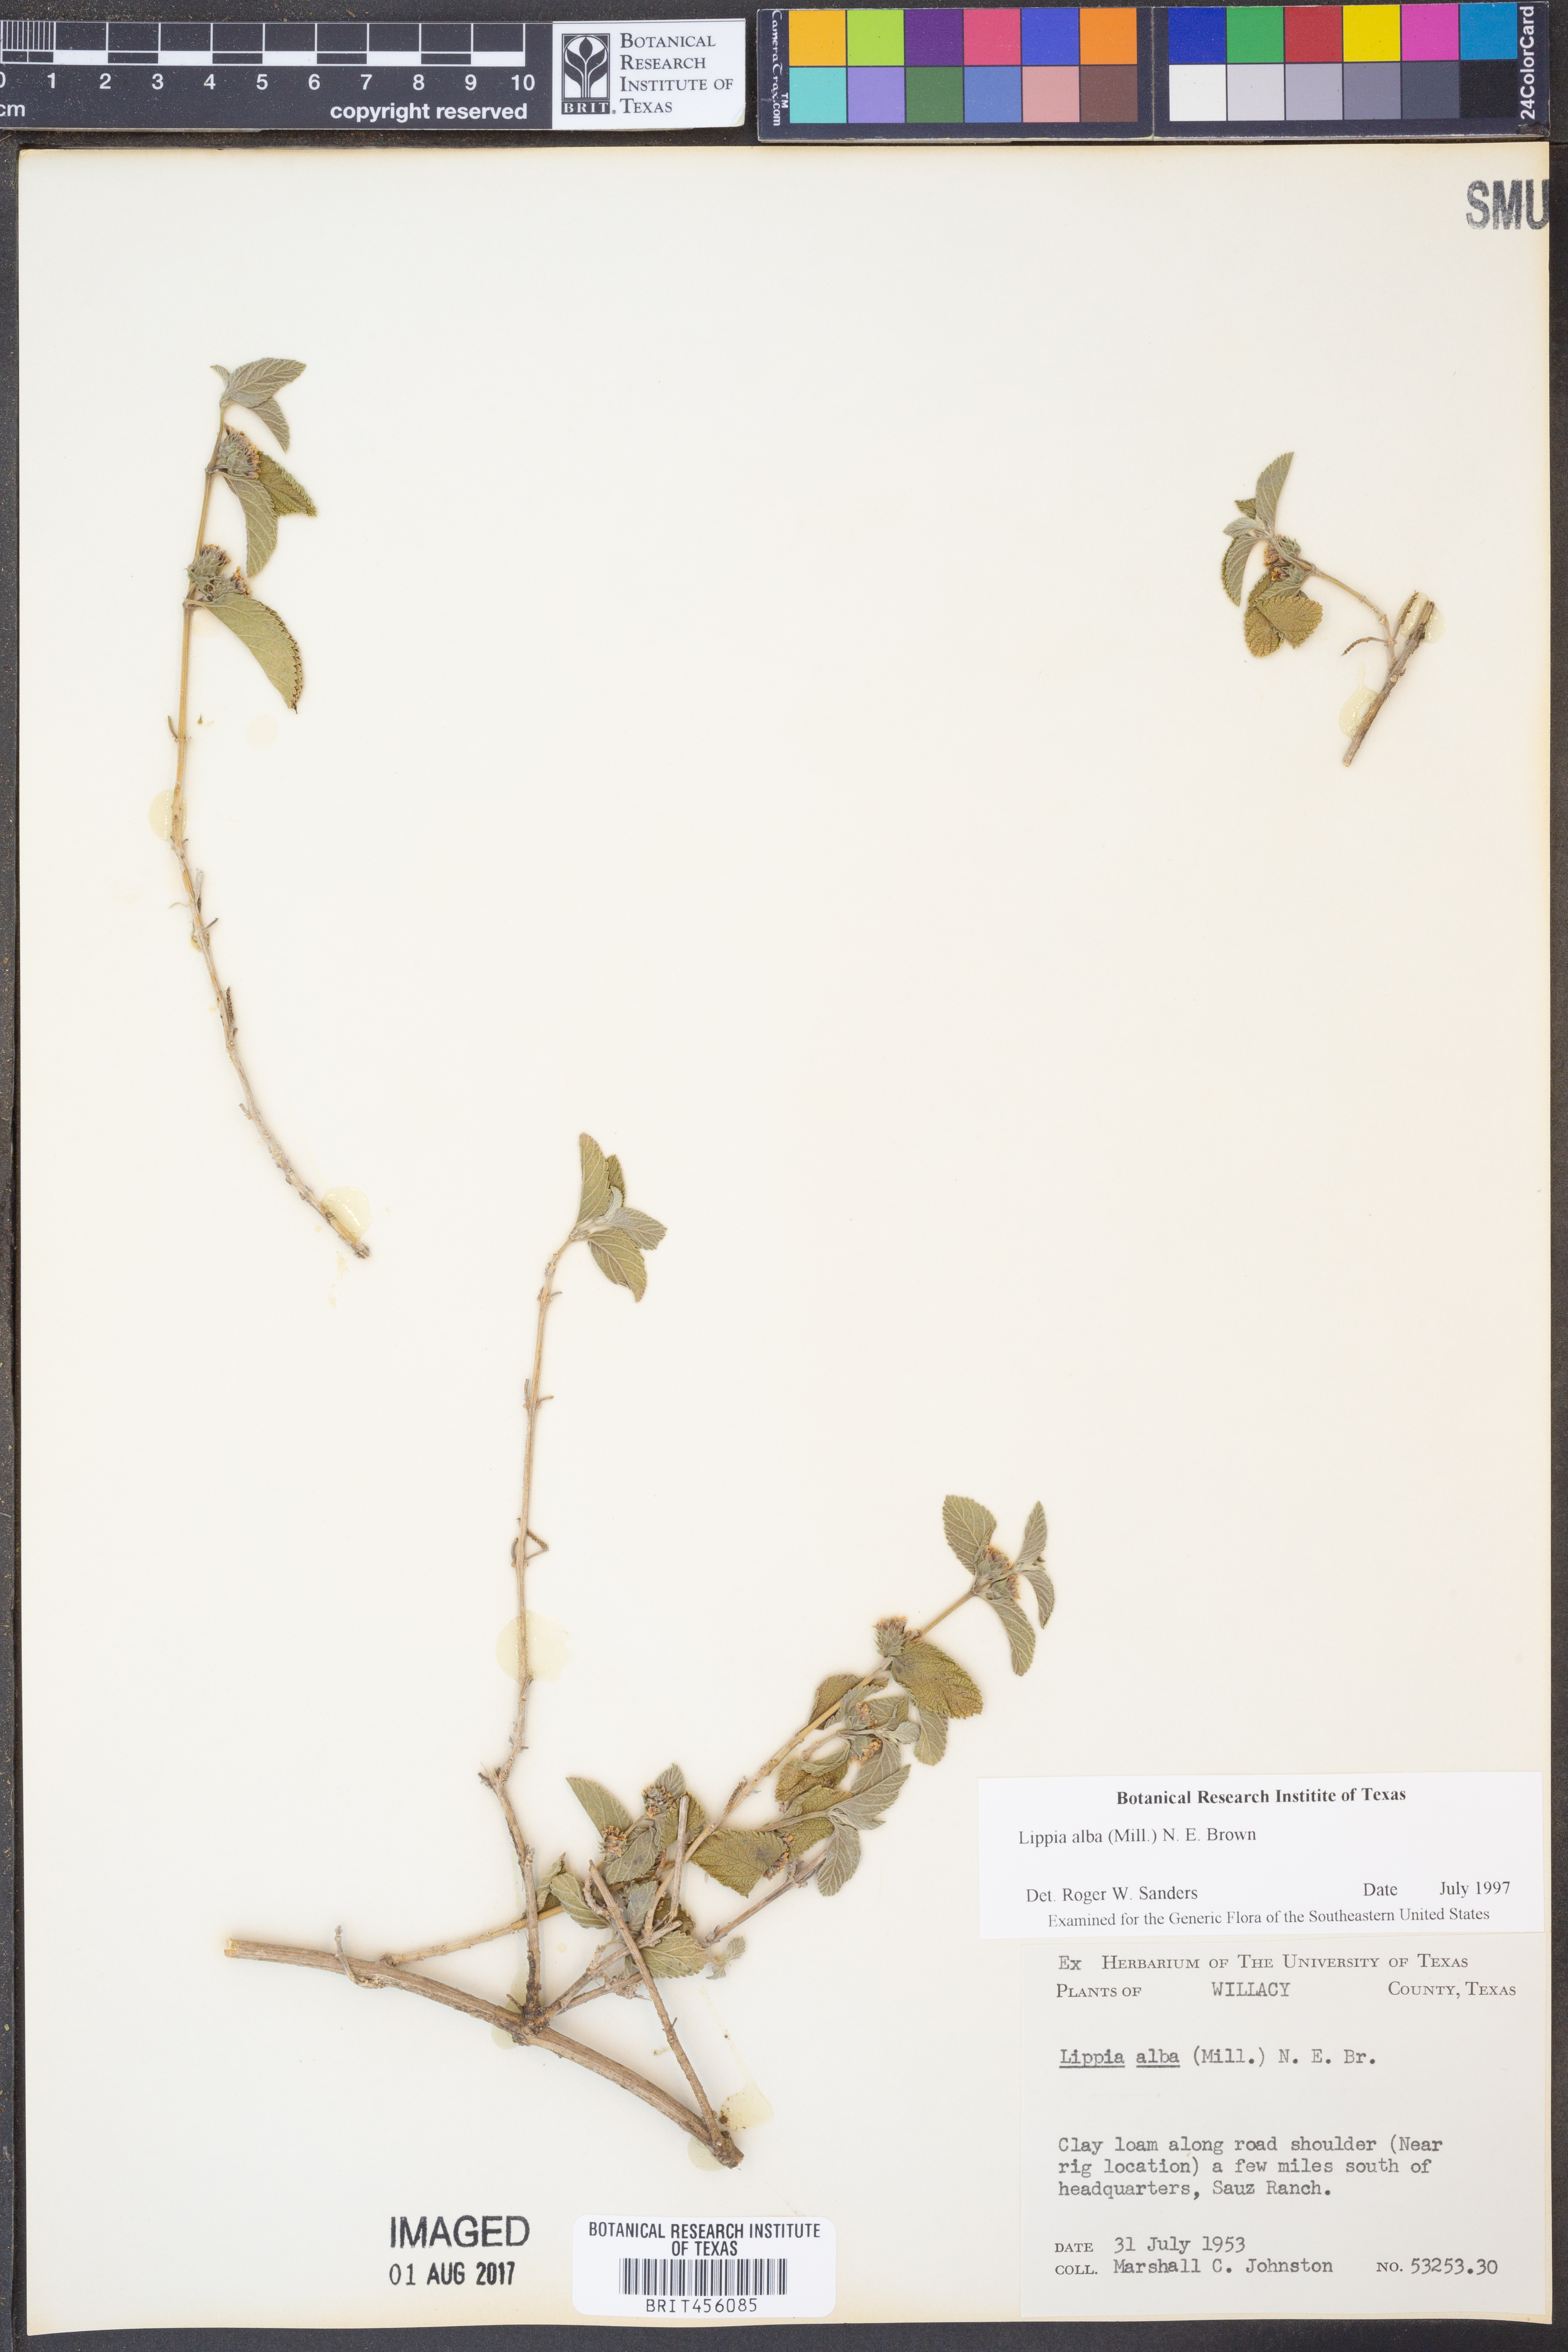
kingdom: Plantae
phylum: Tracheophyta
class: Magnoliopsida
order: Lamiales
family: Verbenaceae
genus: Lippia
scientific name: Lippia alba
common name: Bushy matgrass
